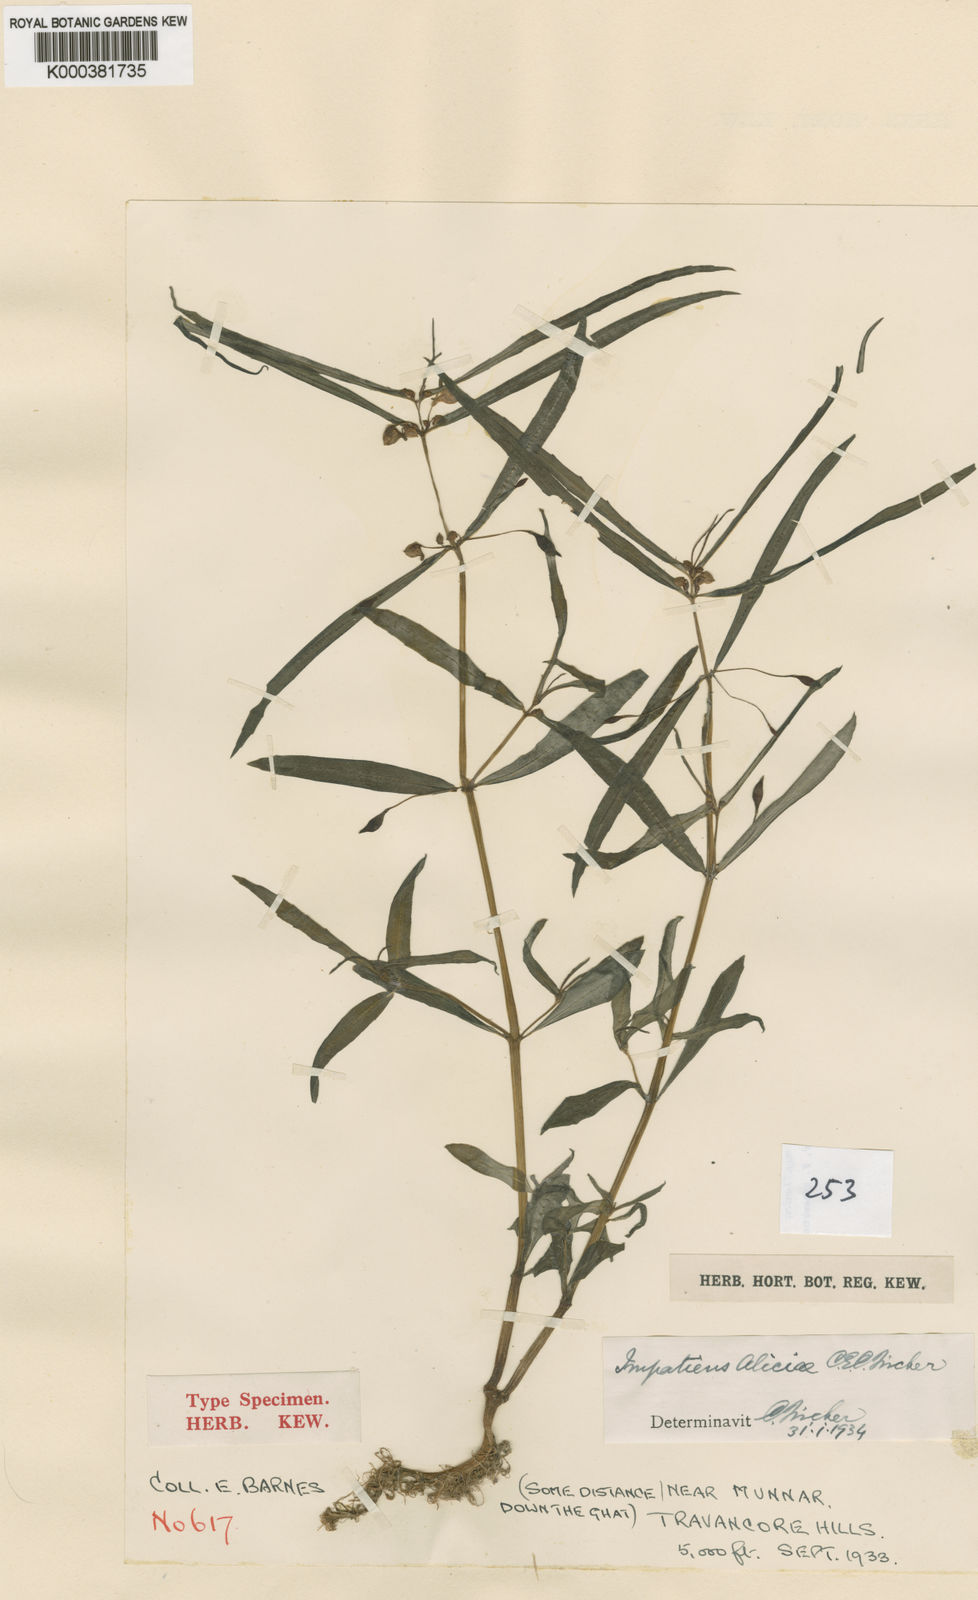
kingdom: Plantae
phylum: Tracheophyta
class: Magnoliopsida
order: Ericales
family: Balsaminaceae
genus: Impatiens
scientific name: Impatiens aliciae
